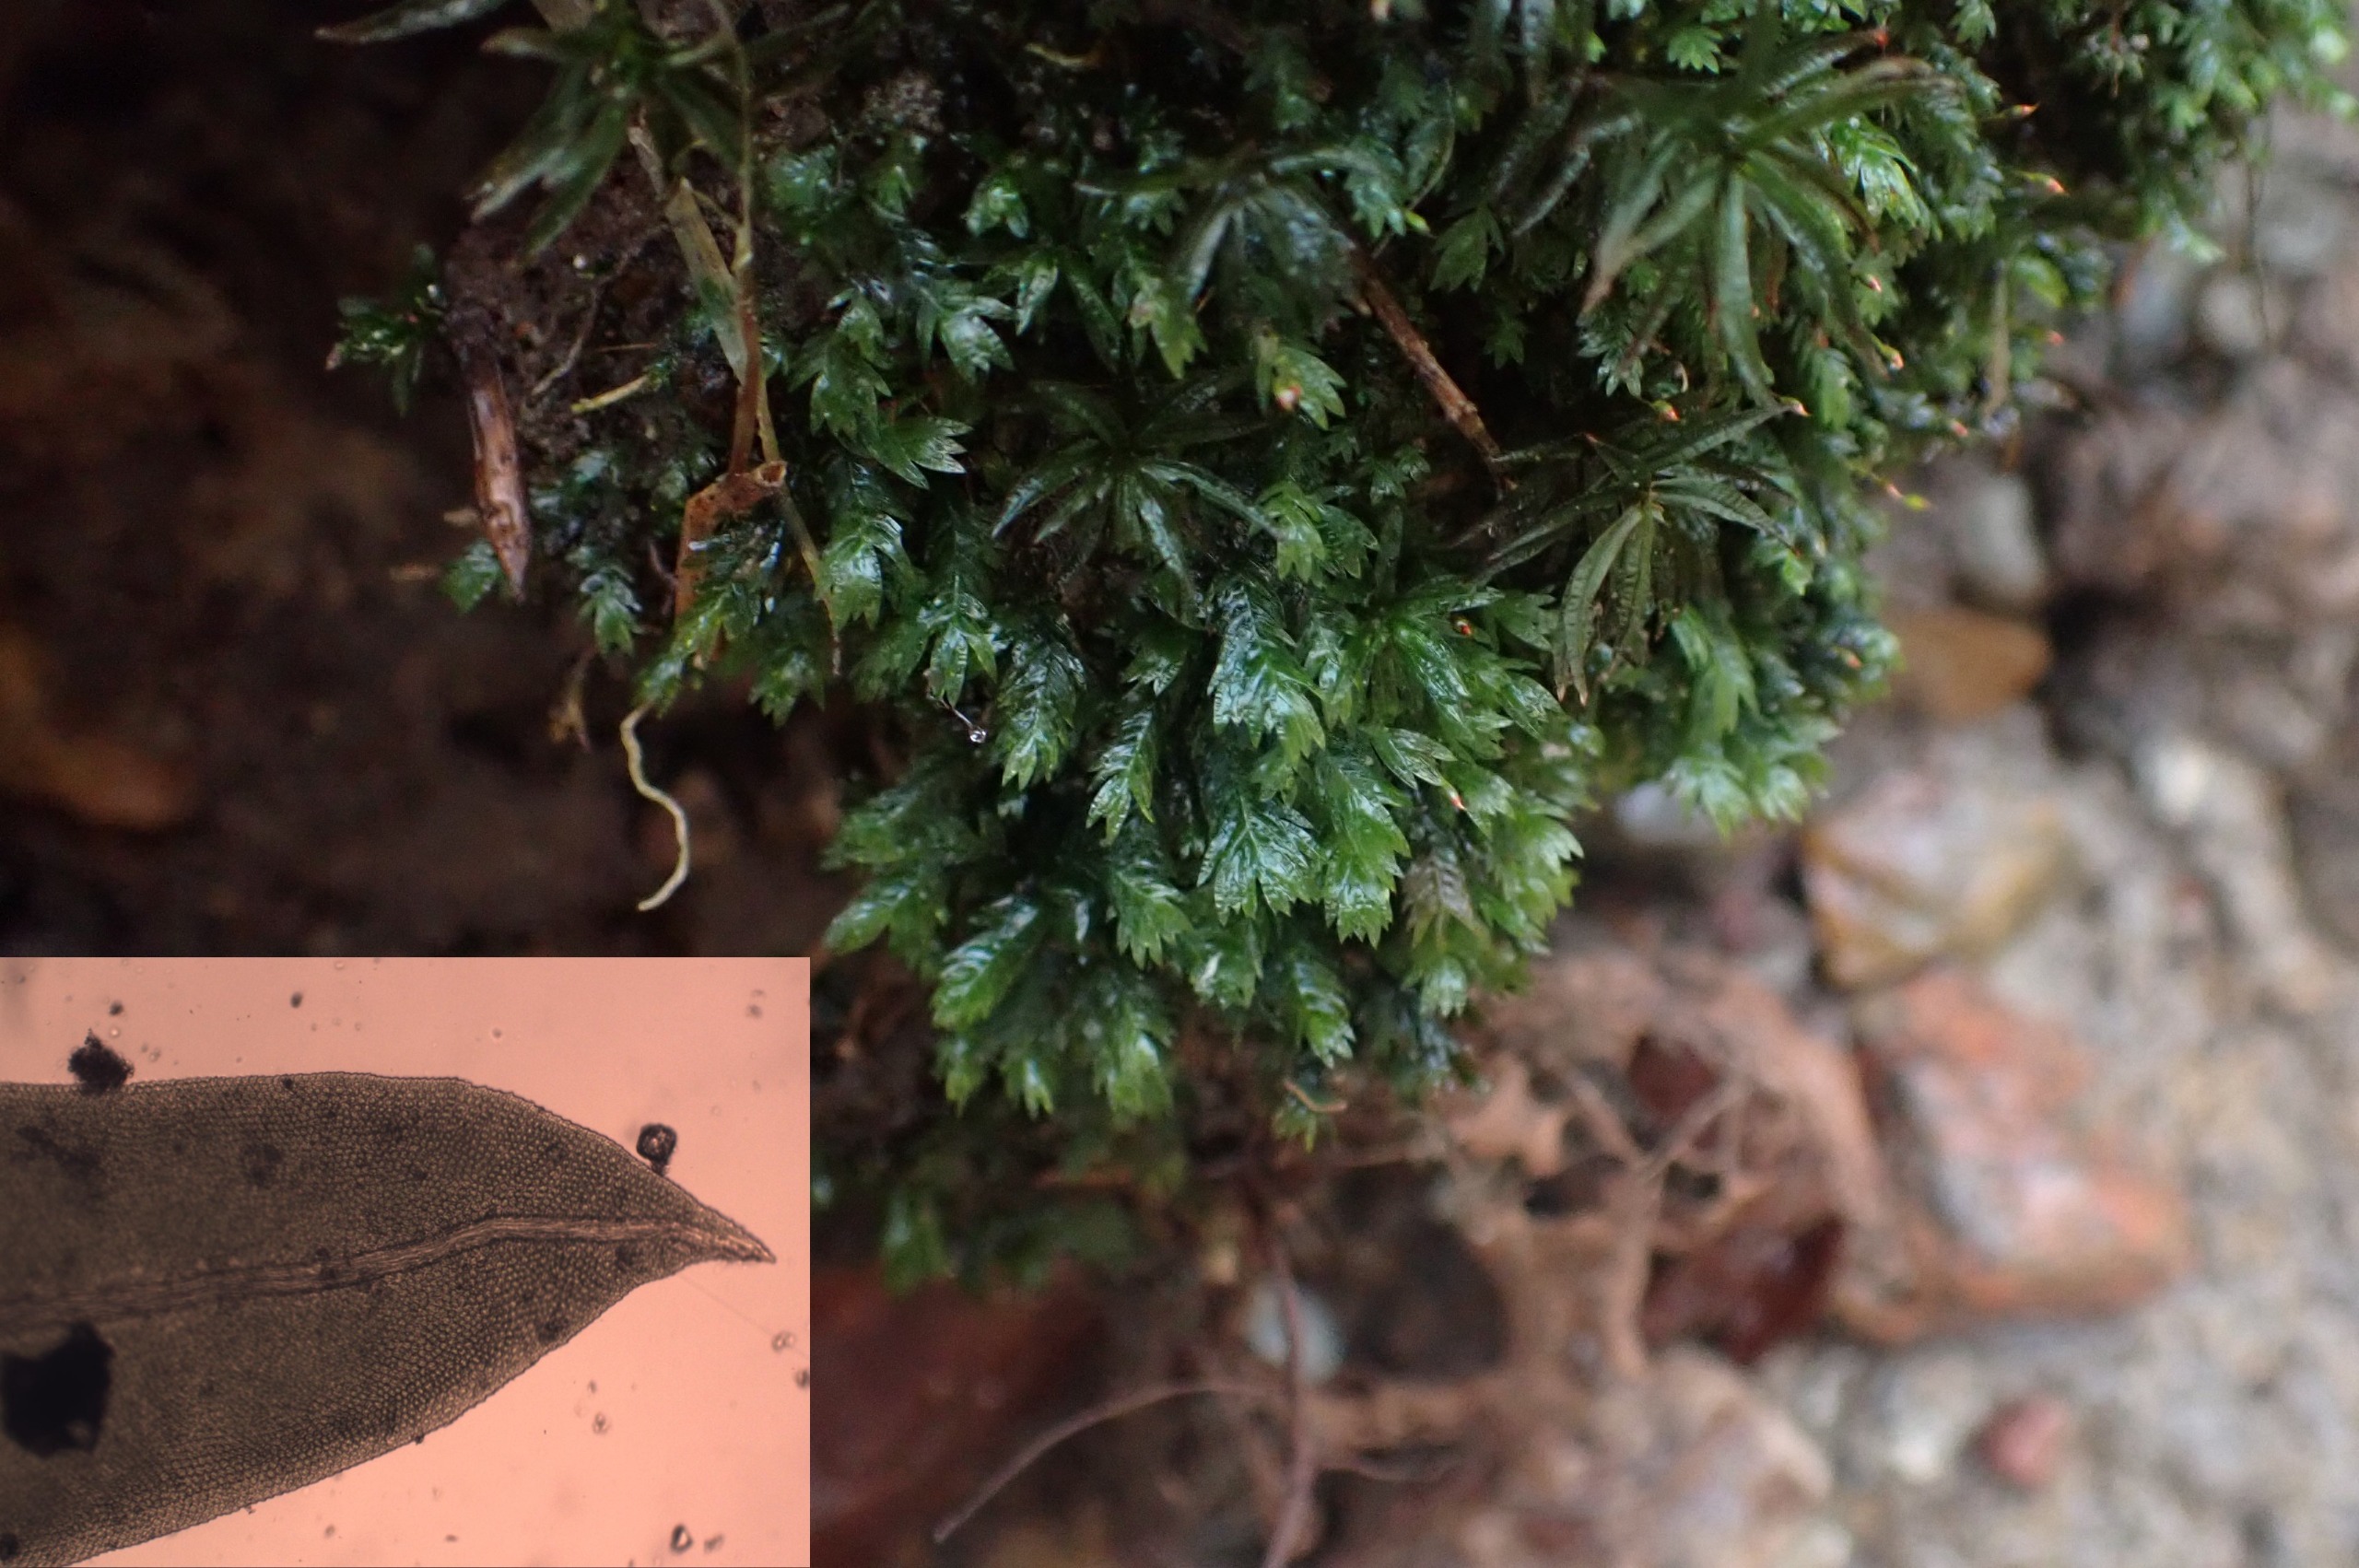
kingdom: Plantae
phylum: Bryophyta
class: Bryopsida
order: Dicranales
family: Fissidentaceae
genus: Fissidens
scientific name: Fissidens taxifolius
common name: Taksbladet rademos
